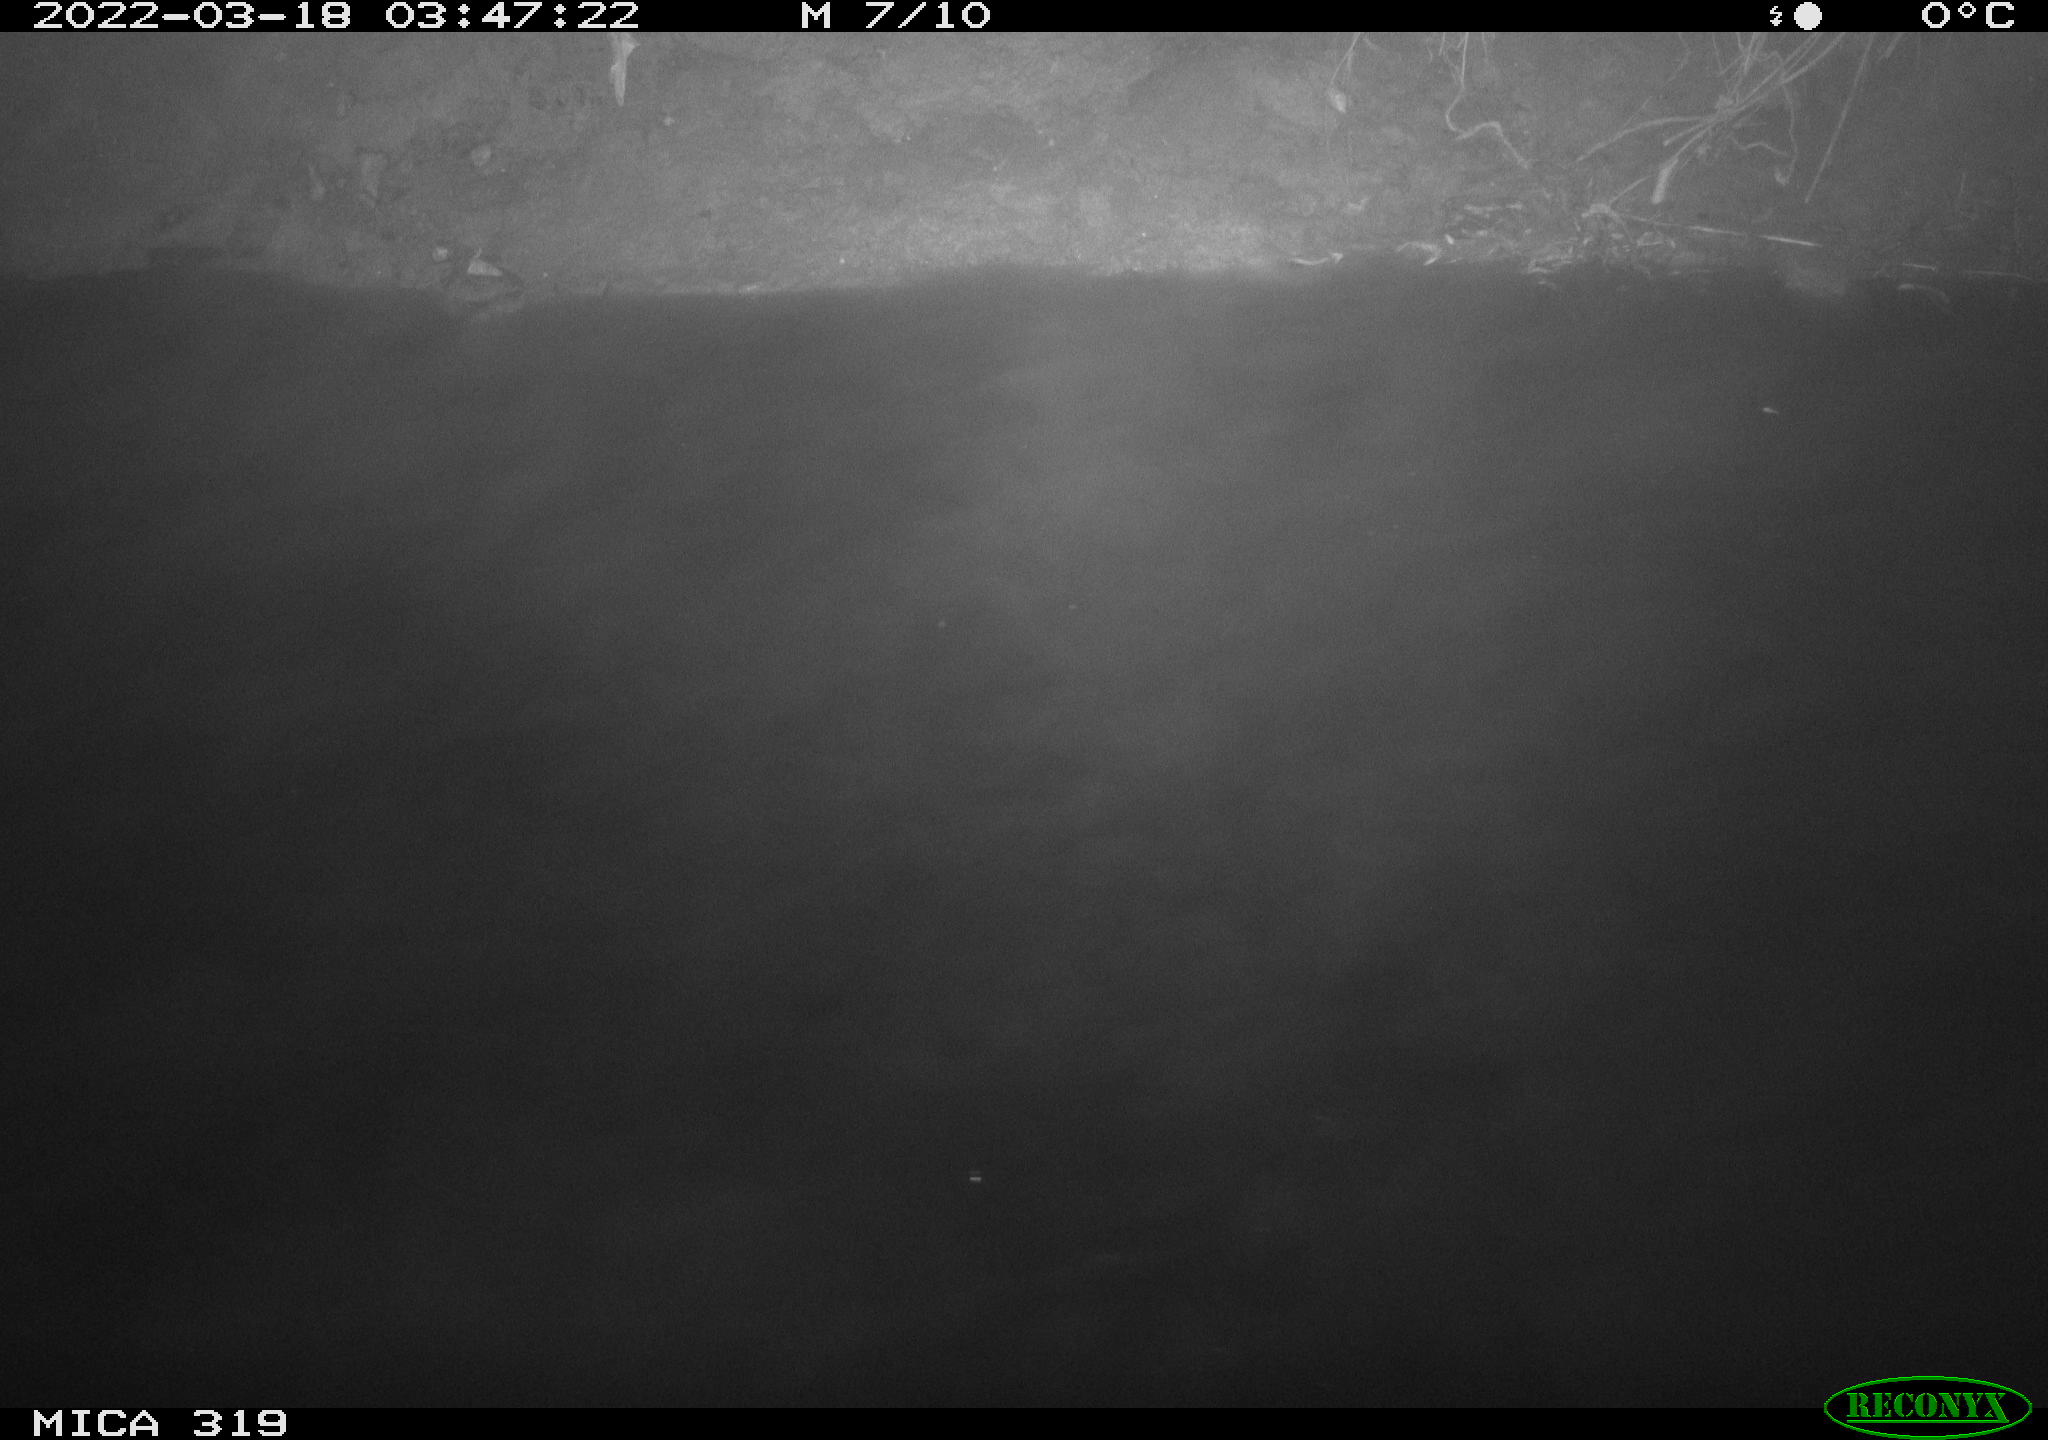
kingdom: Animalia
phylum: Chordata
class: Aves
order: Anseriformes
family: Anatidae
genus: Anas
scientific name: Anas platyrhynchos
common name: Mallard
